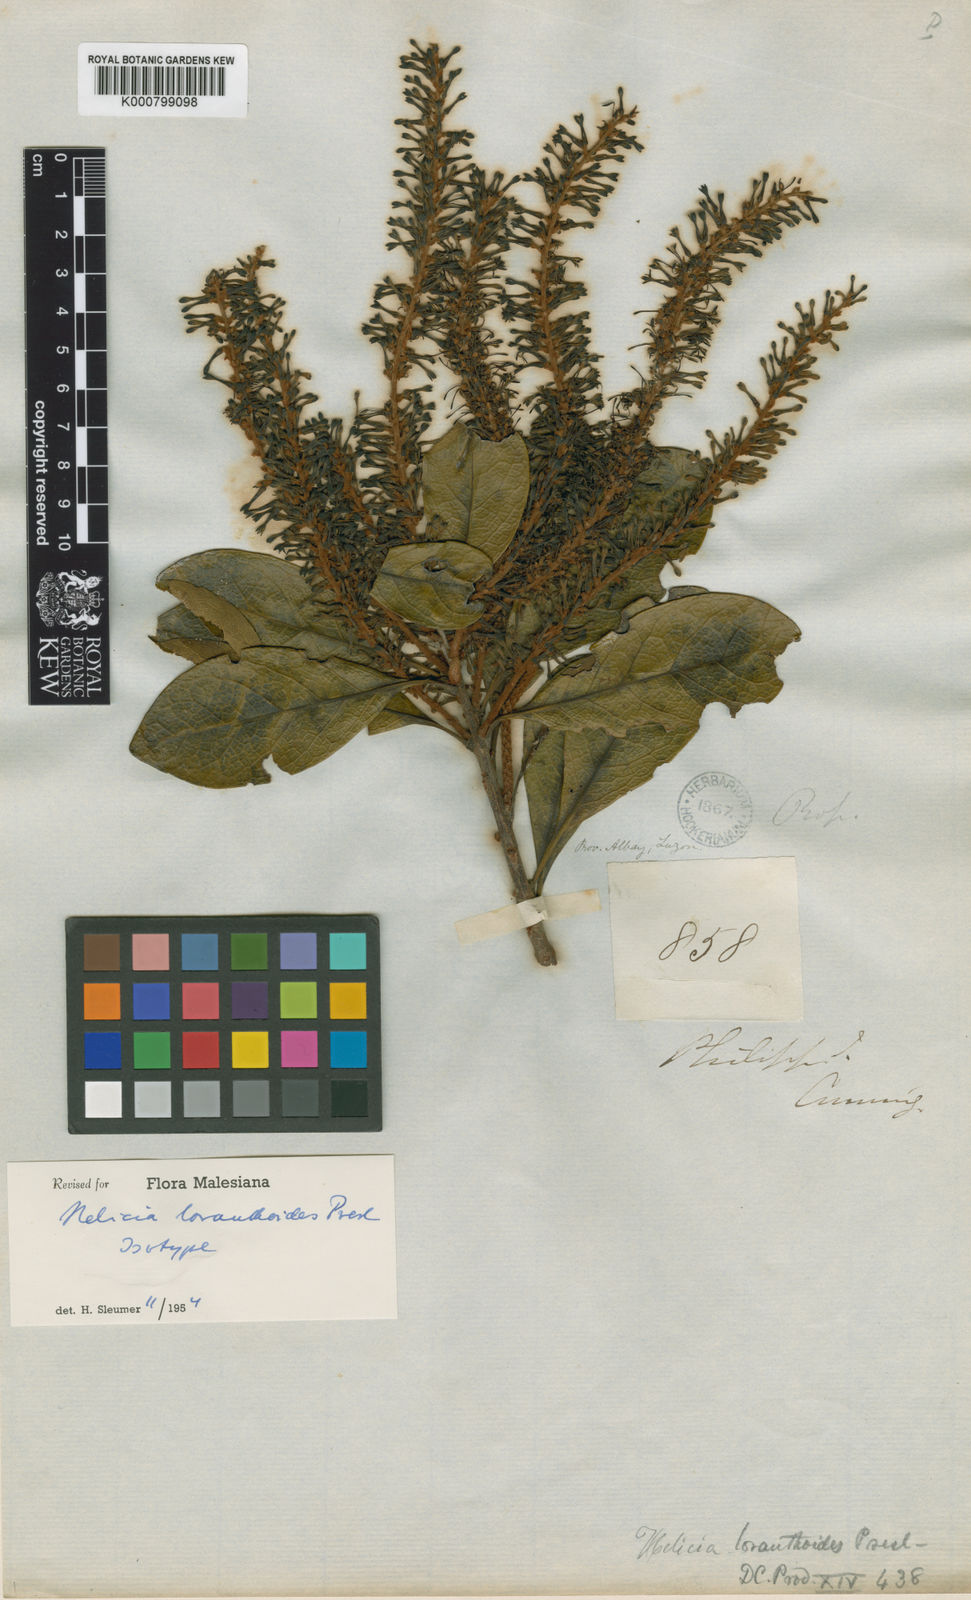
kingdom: Plantae
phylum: Tracheophyta
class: Magnoliopsida
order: Proteales
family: Proteaceae
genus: Helicia
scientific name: Helicia loranthoides
